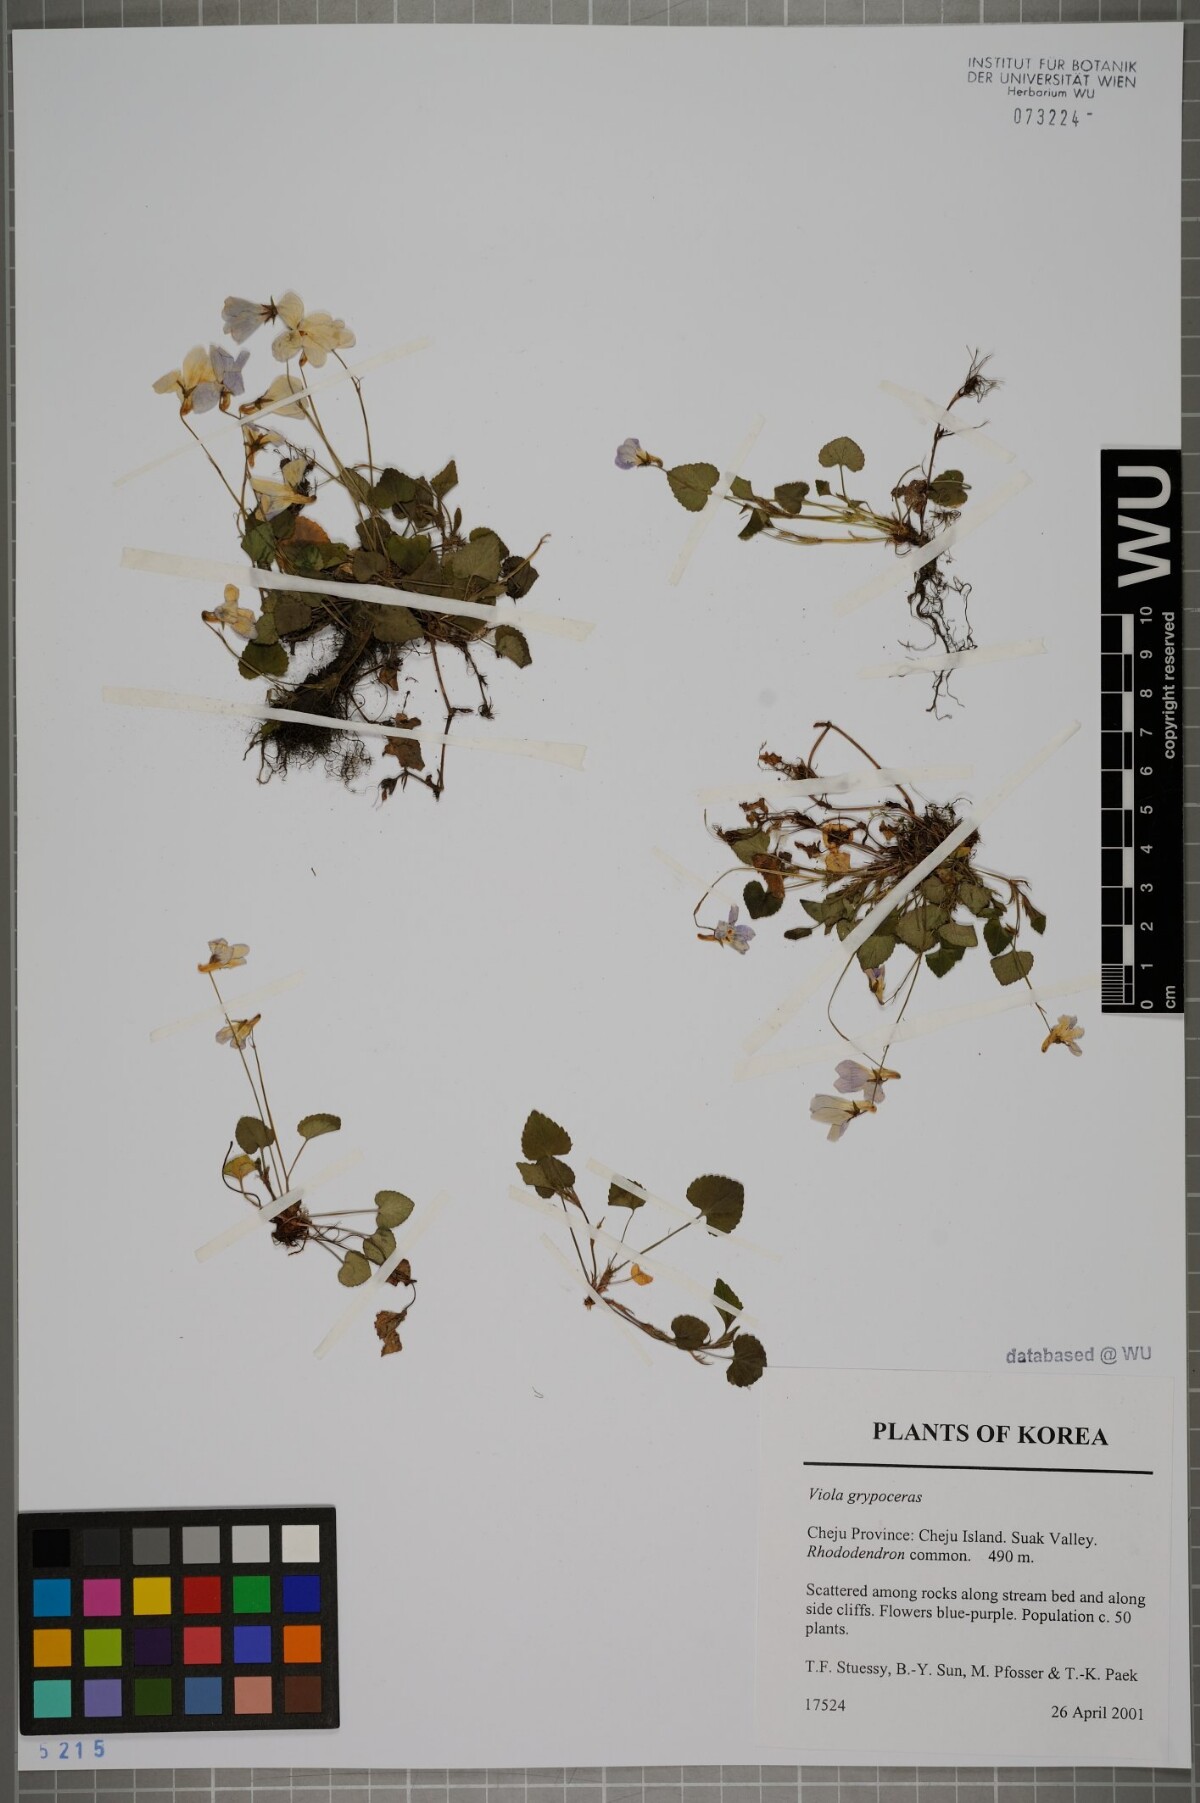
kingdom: Plantae
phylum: Tracheophyta
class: Magnoliopsida
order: Malpighiales
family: Violaceae
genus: Viola
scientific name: Viola grypoceras
